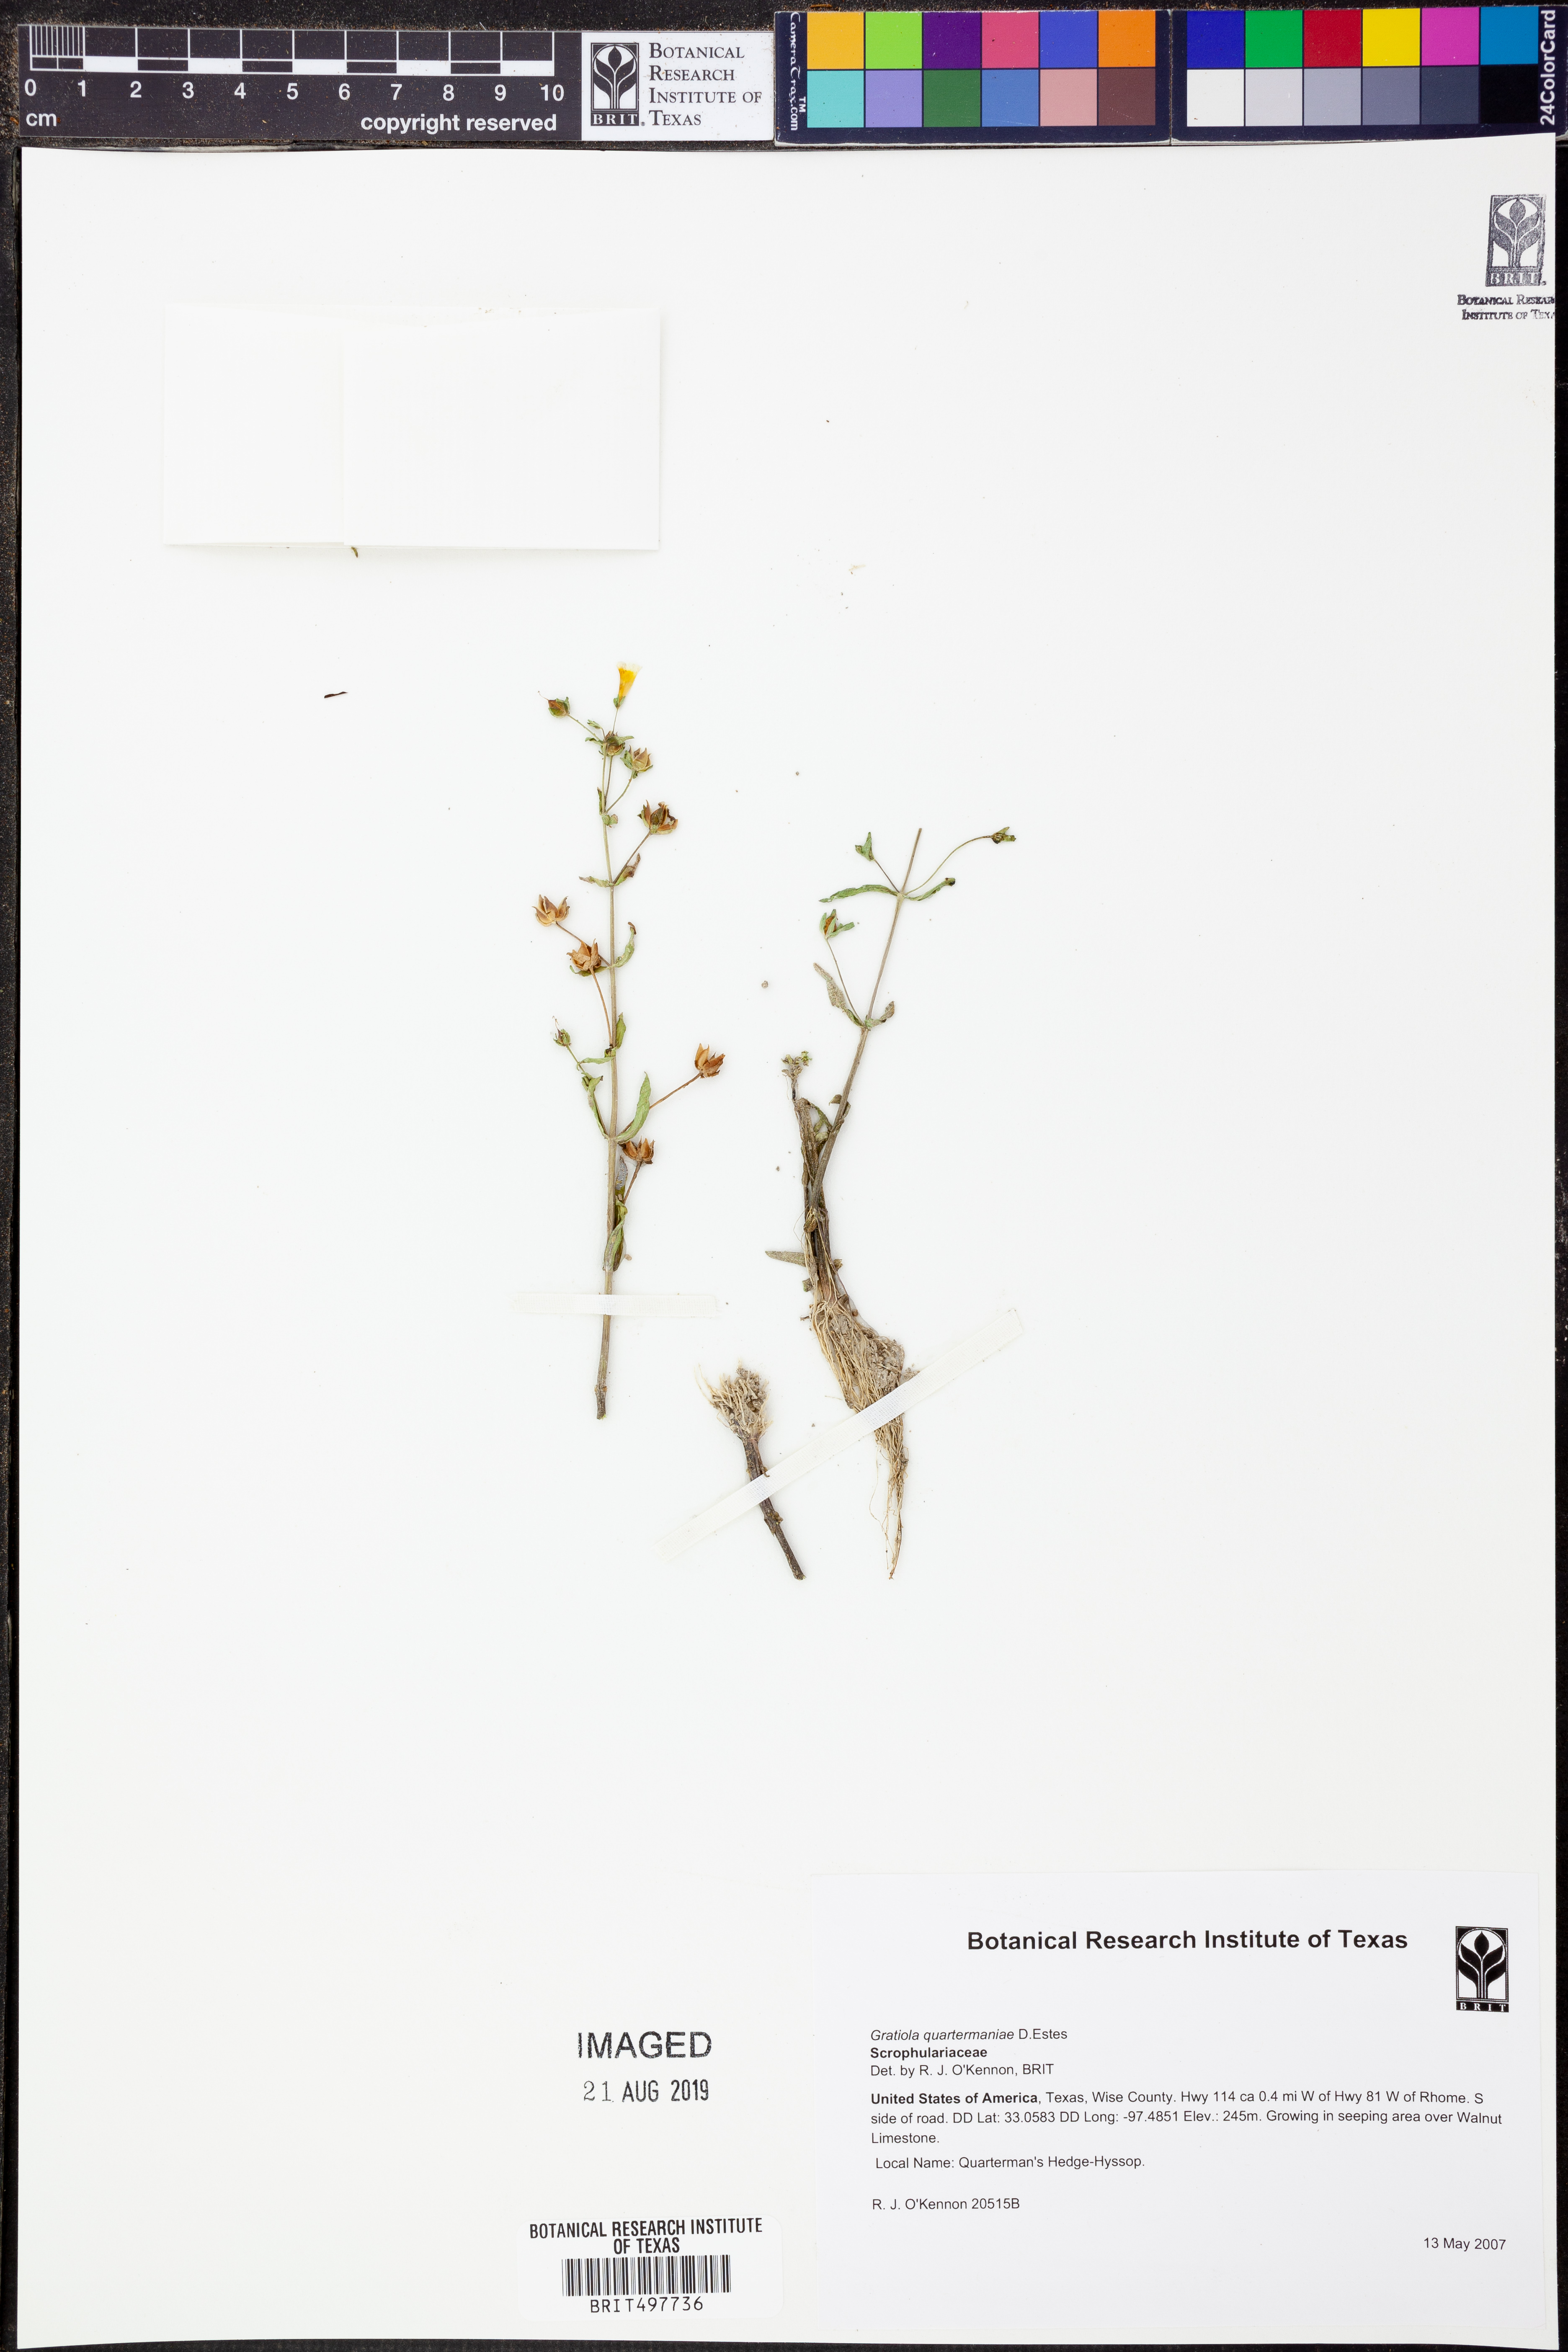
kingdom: Plantae
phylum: Tracheophyta
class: Magnoliopsida
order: Lamiales
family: Plantaginaceae
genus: Gratiola
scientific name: Gratiola quartermaniae
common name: Quarterman's hedge-hyssop
